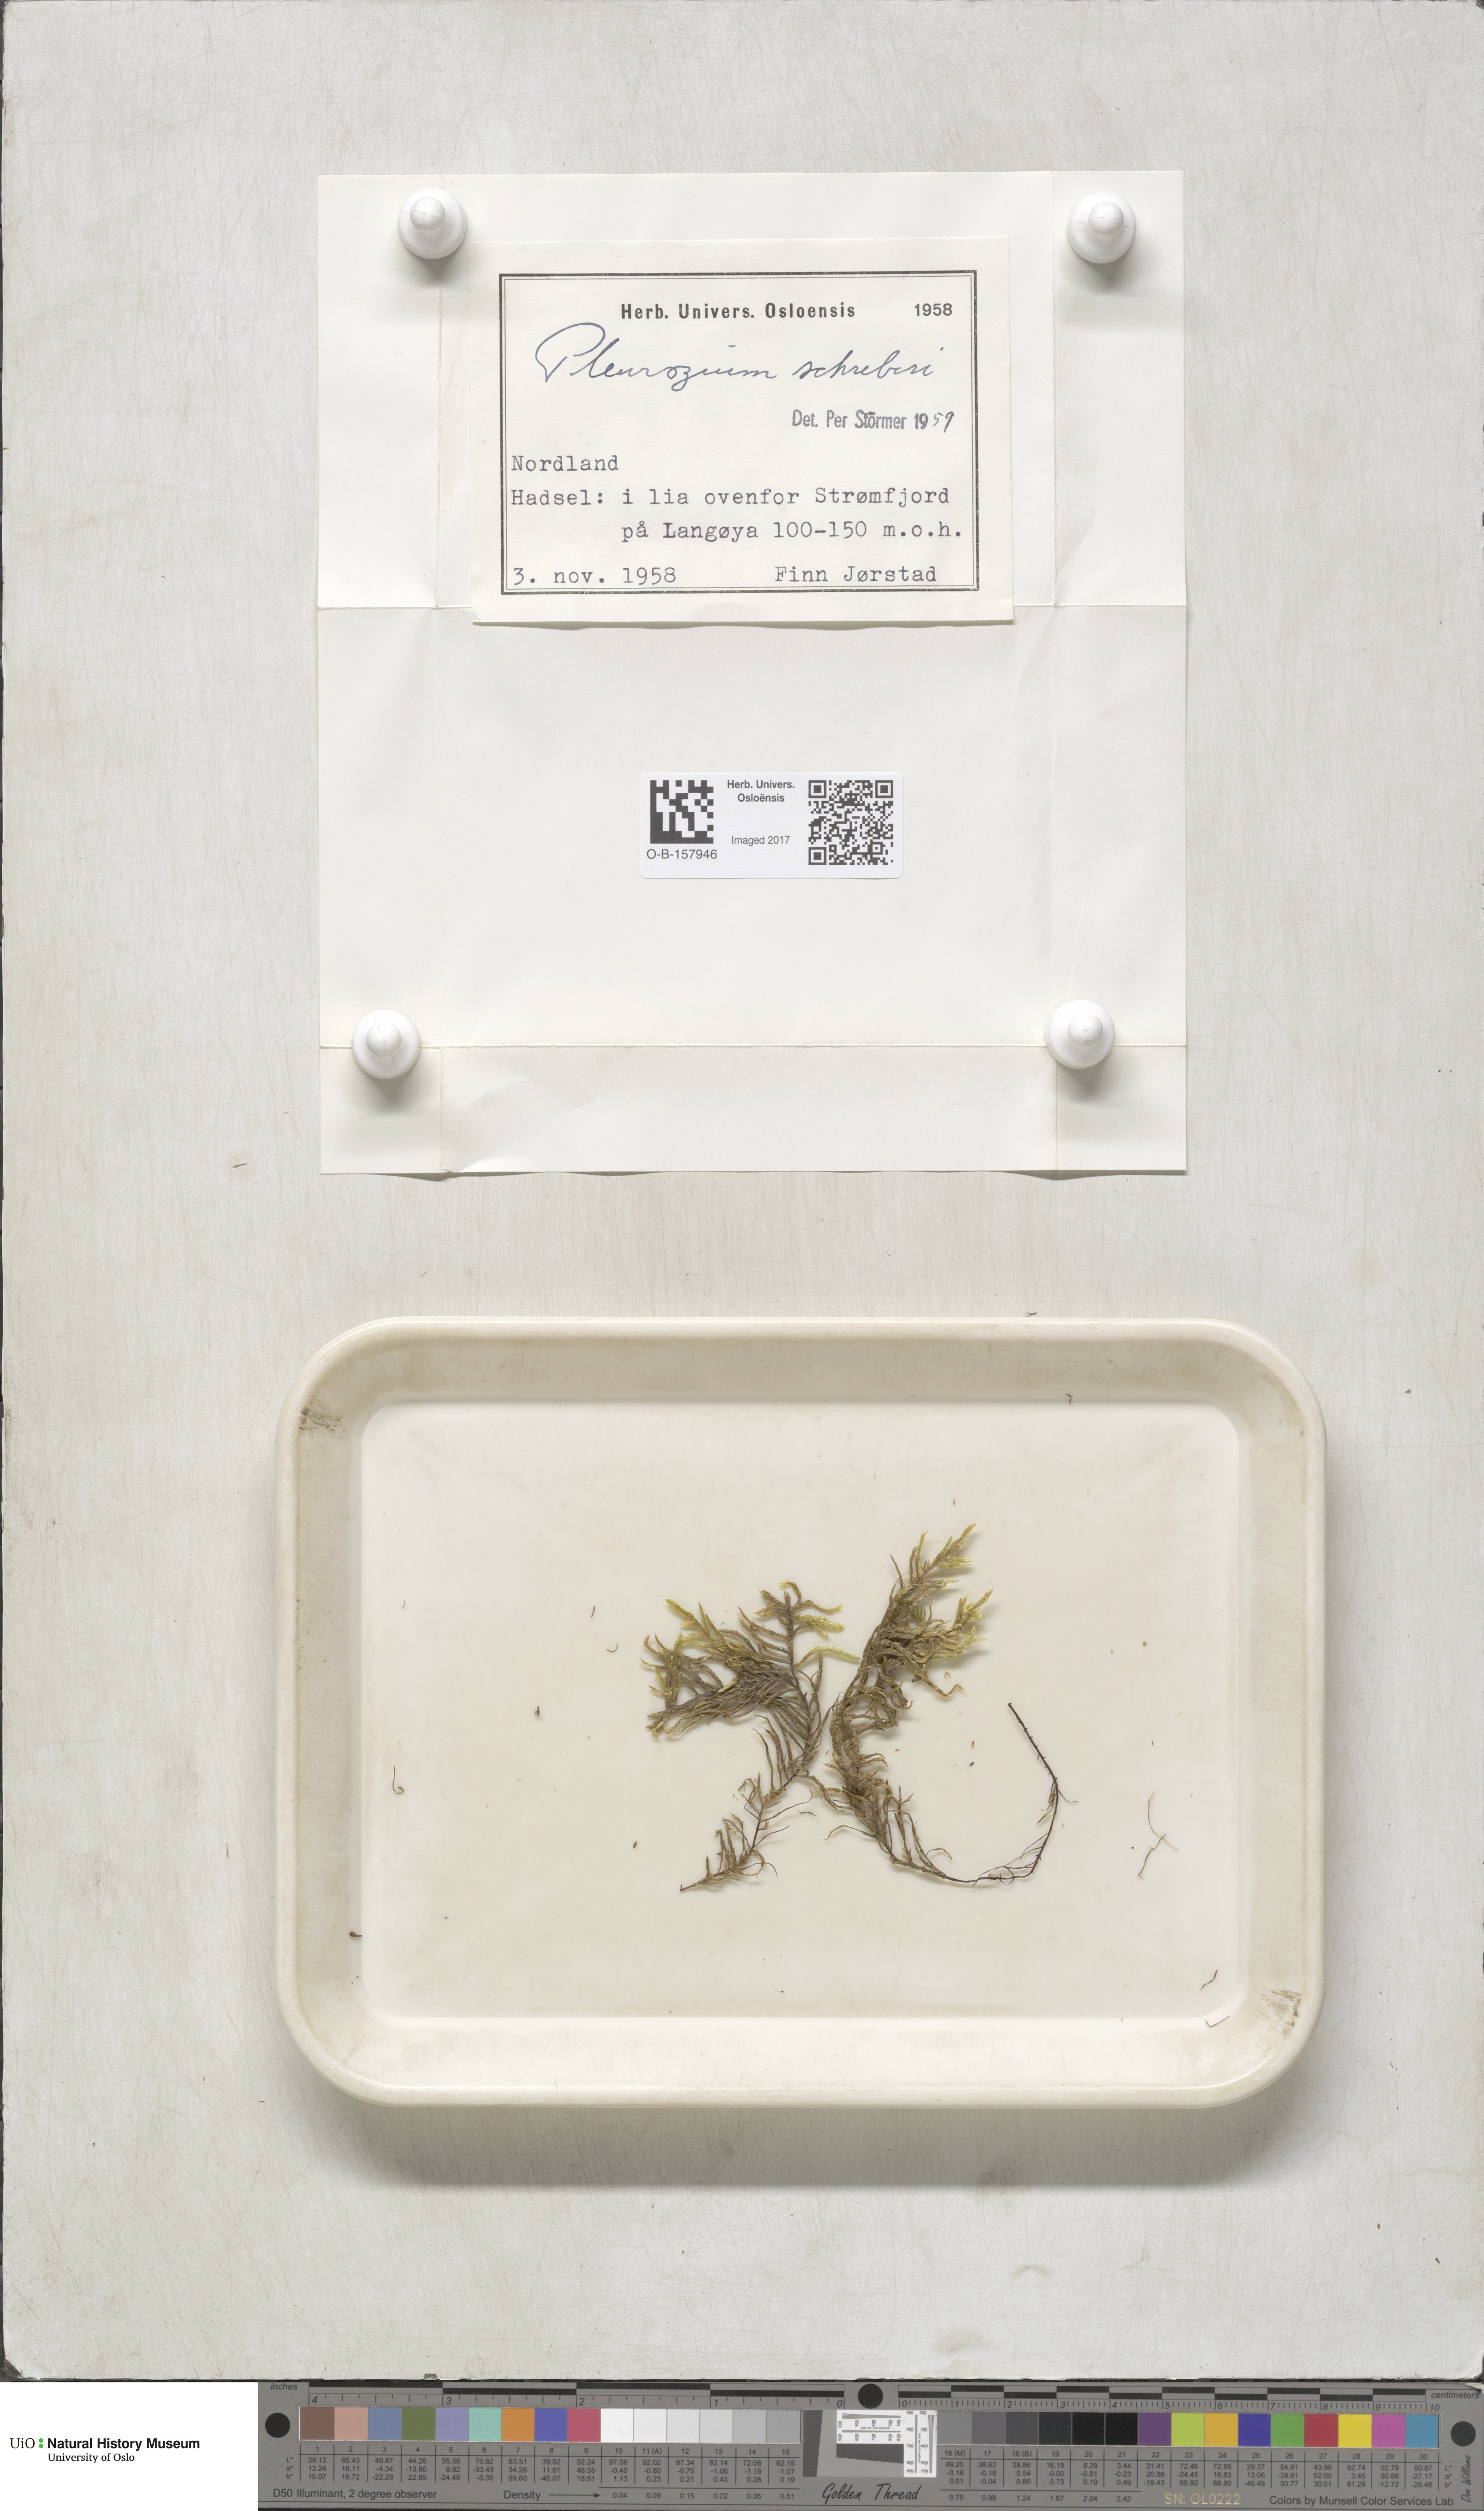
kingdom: Plantae
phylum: Bryophyta
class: Bryopsida
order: Hypnales
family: Hylocomiaceae
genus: Pleurozium
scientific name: Pleurozium schreberi
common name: Red-stemmed feather moss
